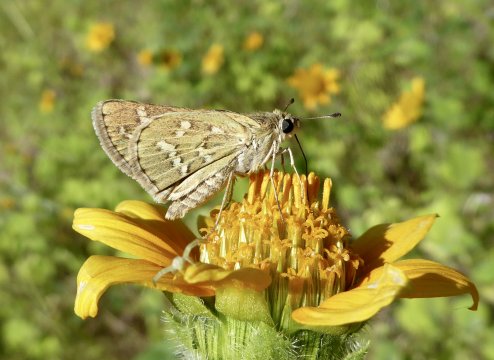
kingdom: Animalia
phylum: Arthropoda
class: Insecta
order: Lepidoptera
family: Hesperiidae
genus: Yvretta
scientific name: Yvretta carus
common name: Carus Skipper
